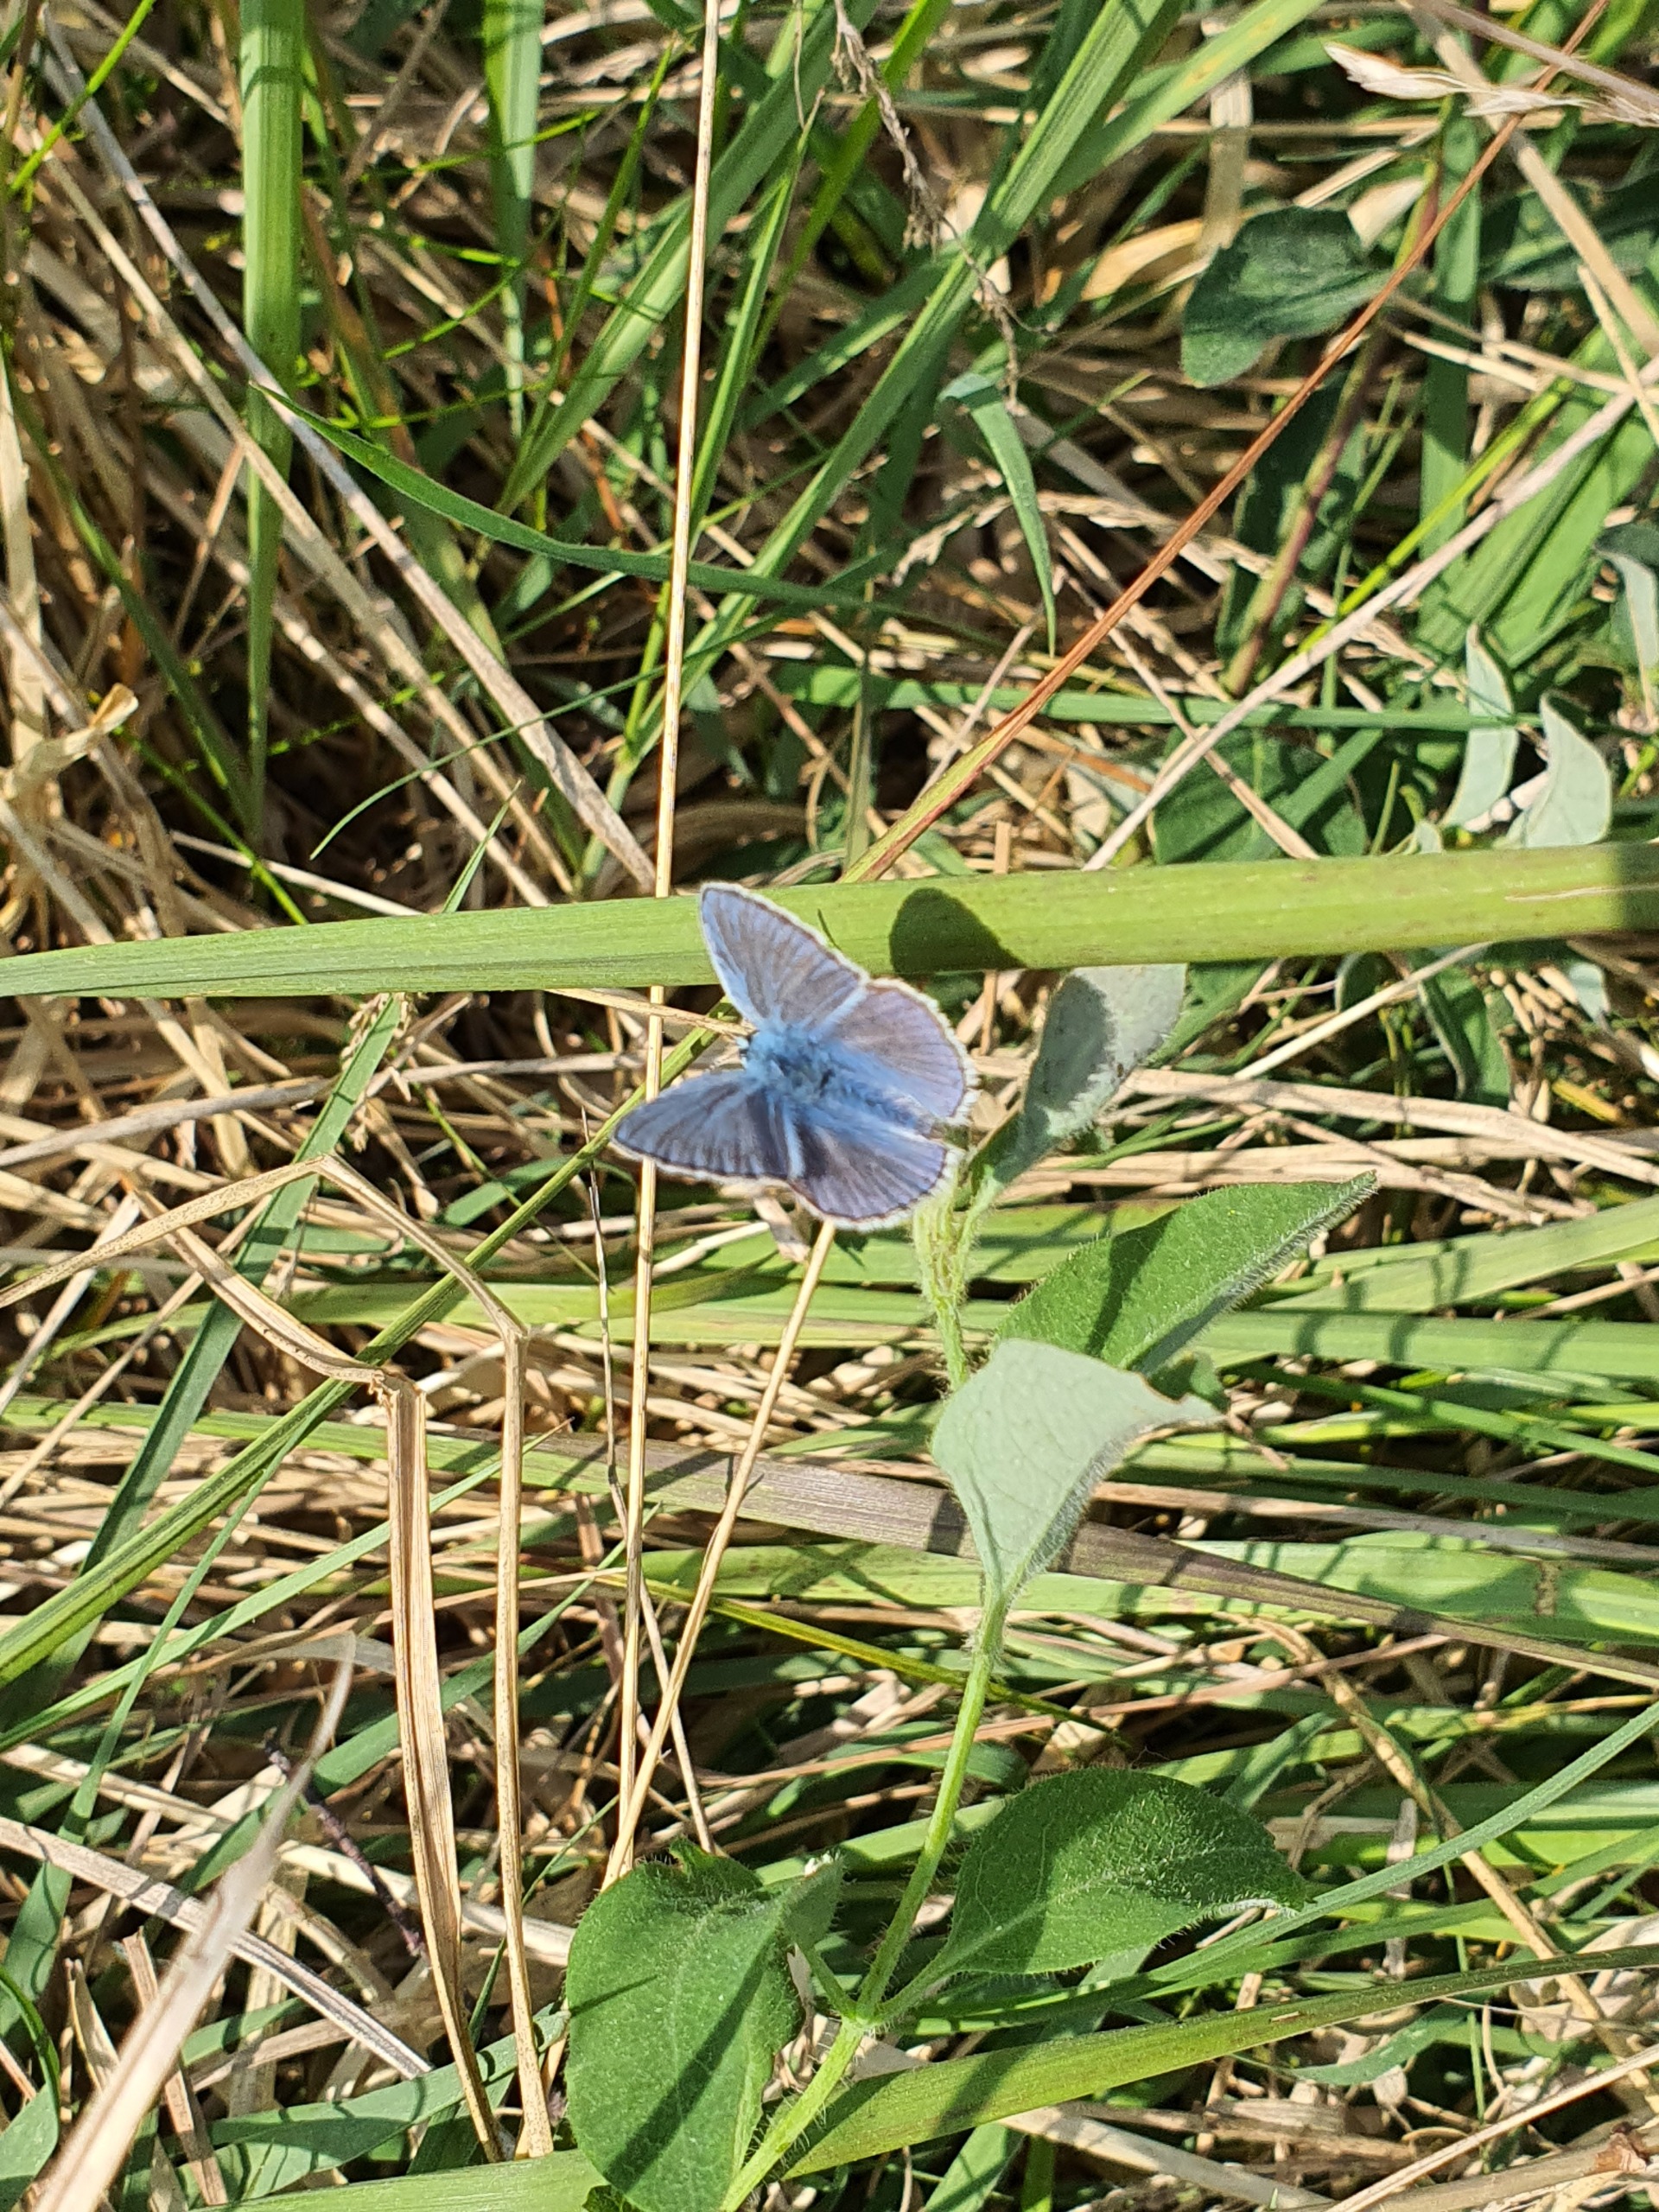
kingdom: Animalia
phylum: Arthropoda
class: Insecta
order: Lepidoptera
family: Lycaenidae
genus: Polyommatus
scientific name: Polyommatus icarus
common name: Almindelig blåfugl
